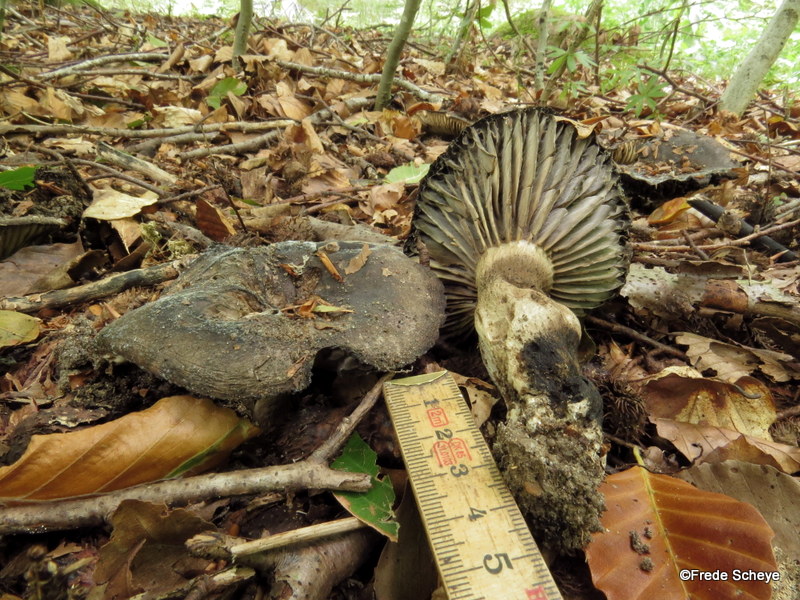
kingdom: Fungi
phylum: Basidiomycota
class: Agaricomycetes
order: Russulales
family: Russulaceae
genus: Russula
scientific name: Russula adusta
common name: sværtende skørhat
